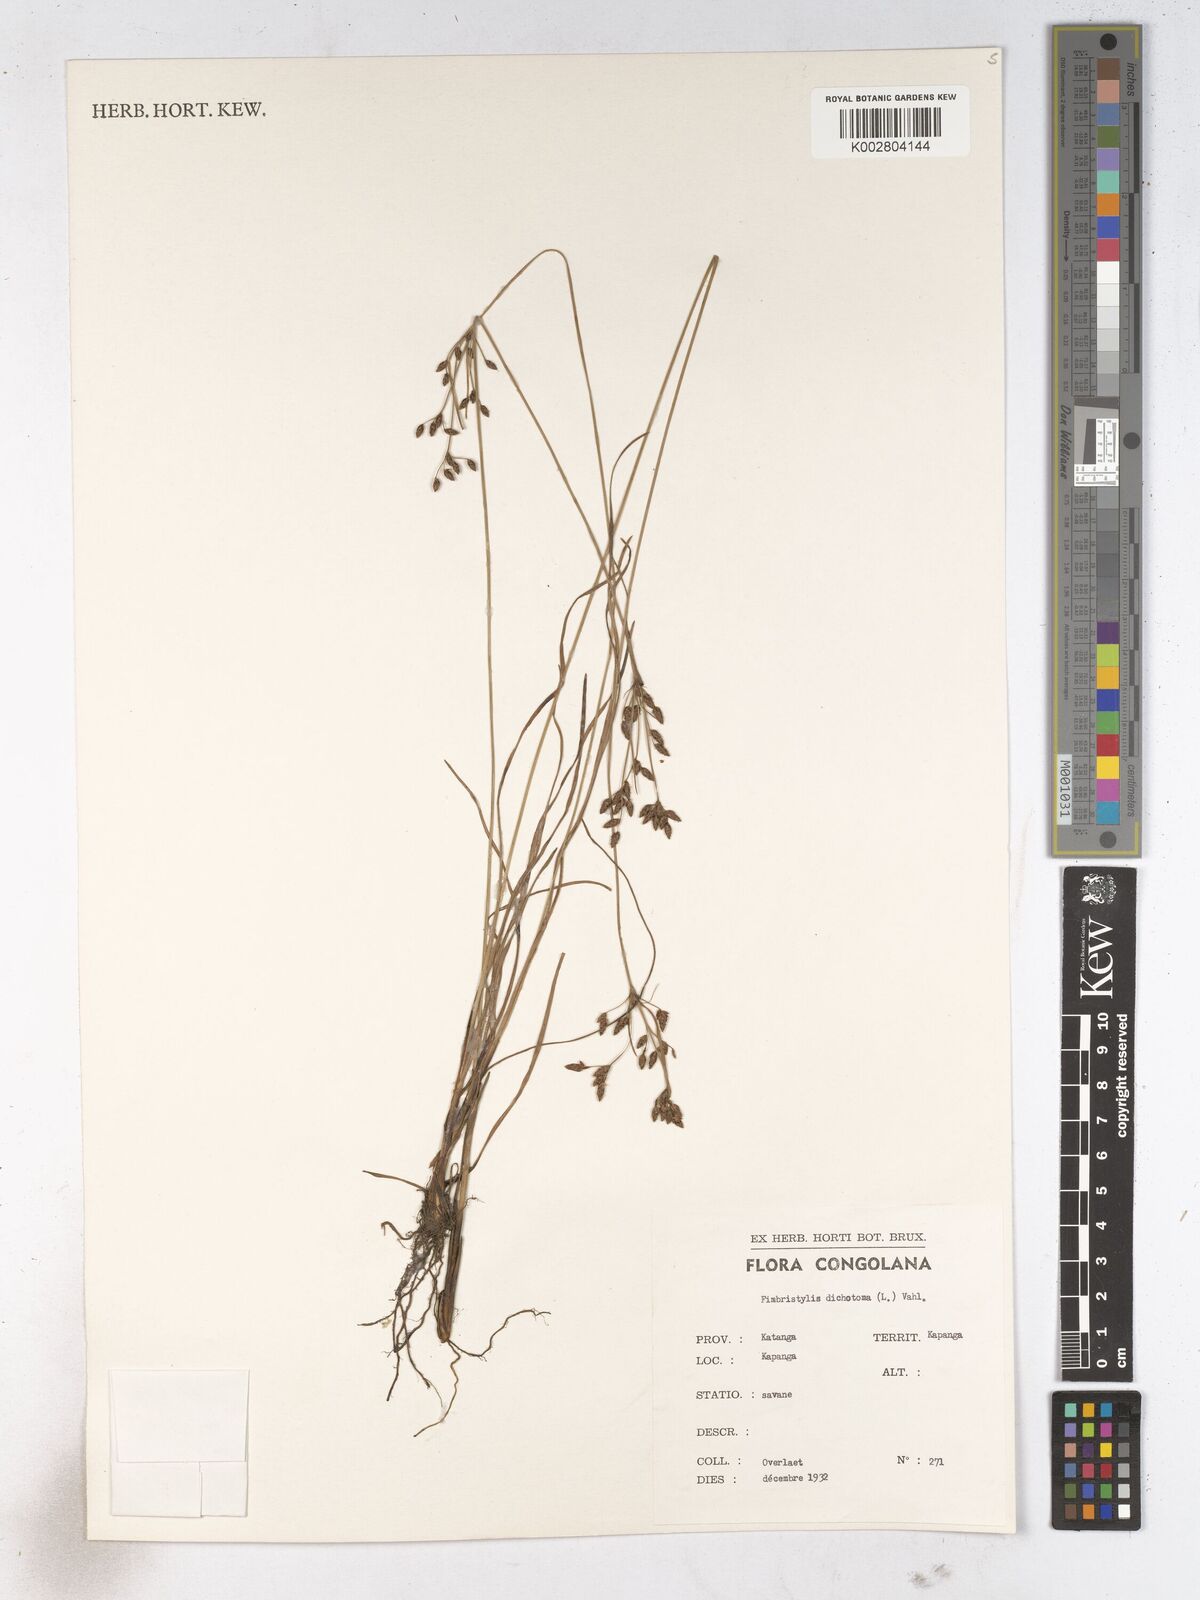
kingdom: Plantae
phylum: Tracheophyta
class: Liliopsida
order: Poales
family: Cyperaceae
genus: Fimbristylis
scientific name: Fimbristylis dichotoma
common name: Forked fimbry
